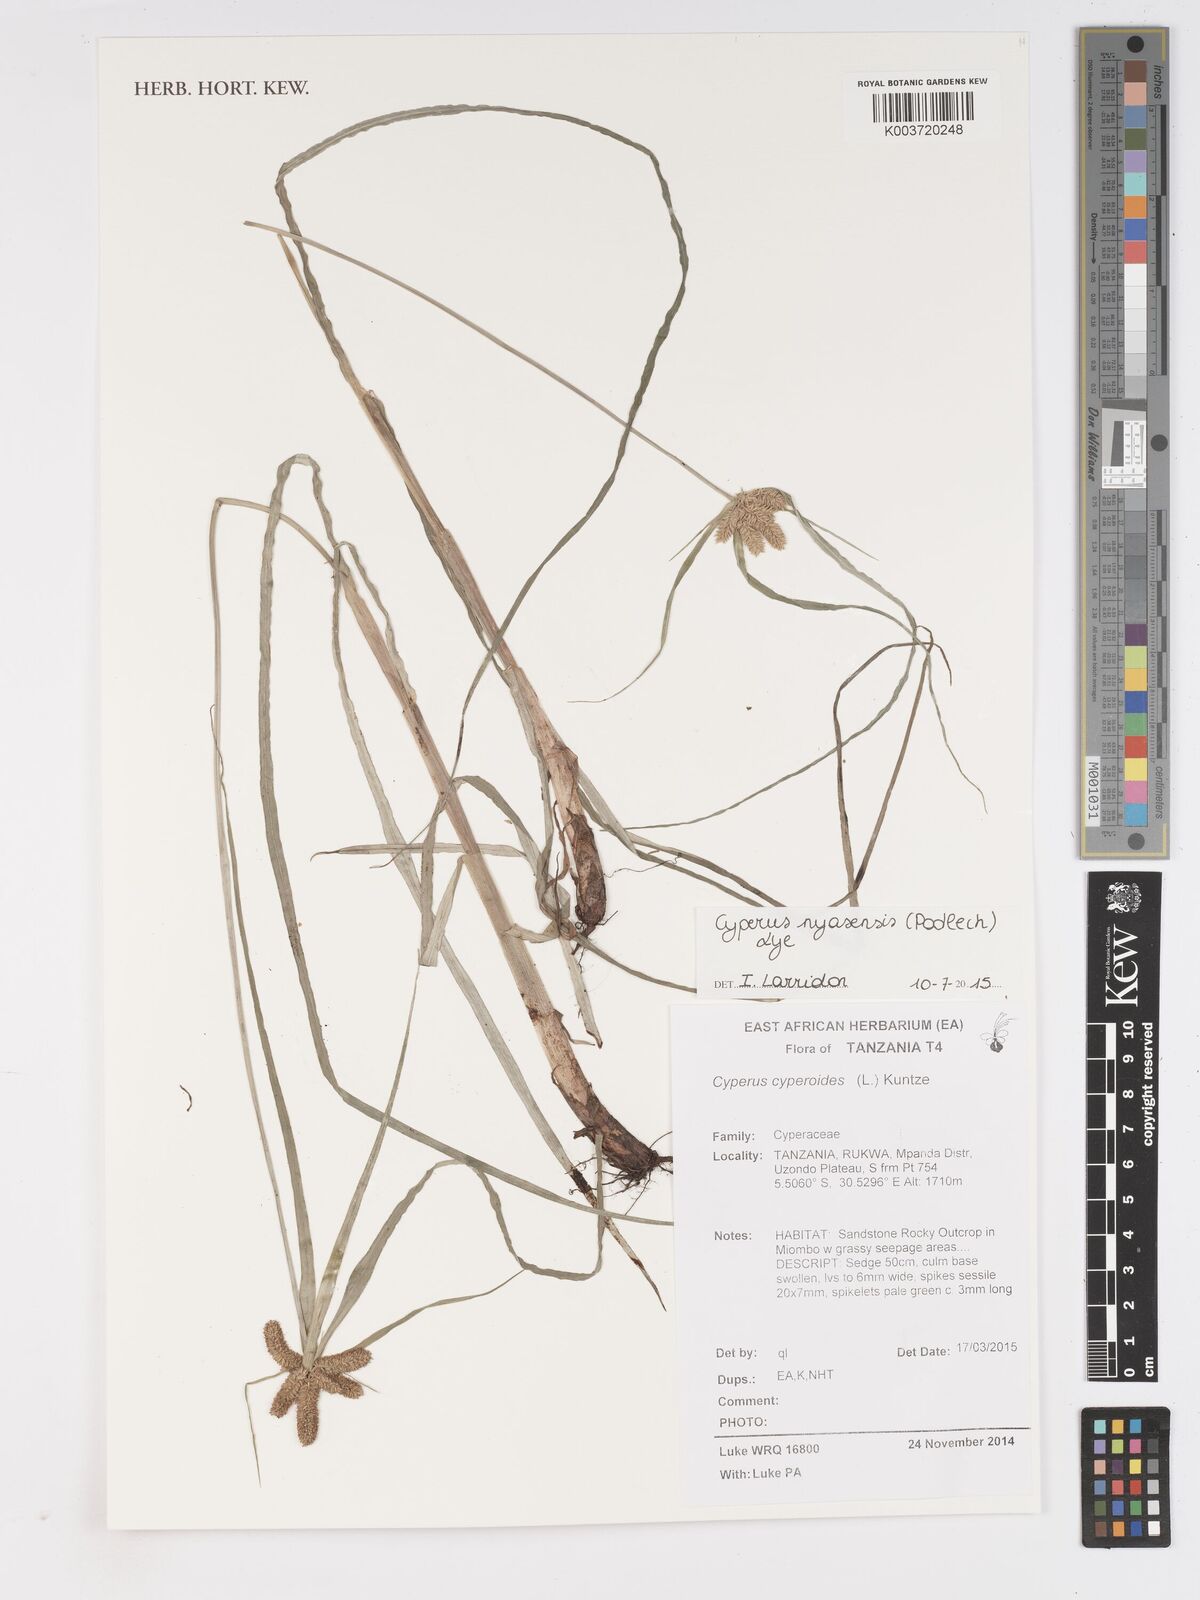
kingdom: Plantae
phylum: Tracheophyta
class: Liliopsida
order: Poales
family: Cyperaceae
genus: Cyperus
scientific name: Cyperus nyasensis
